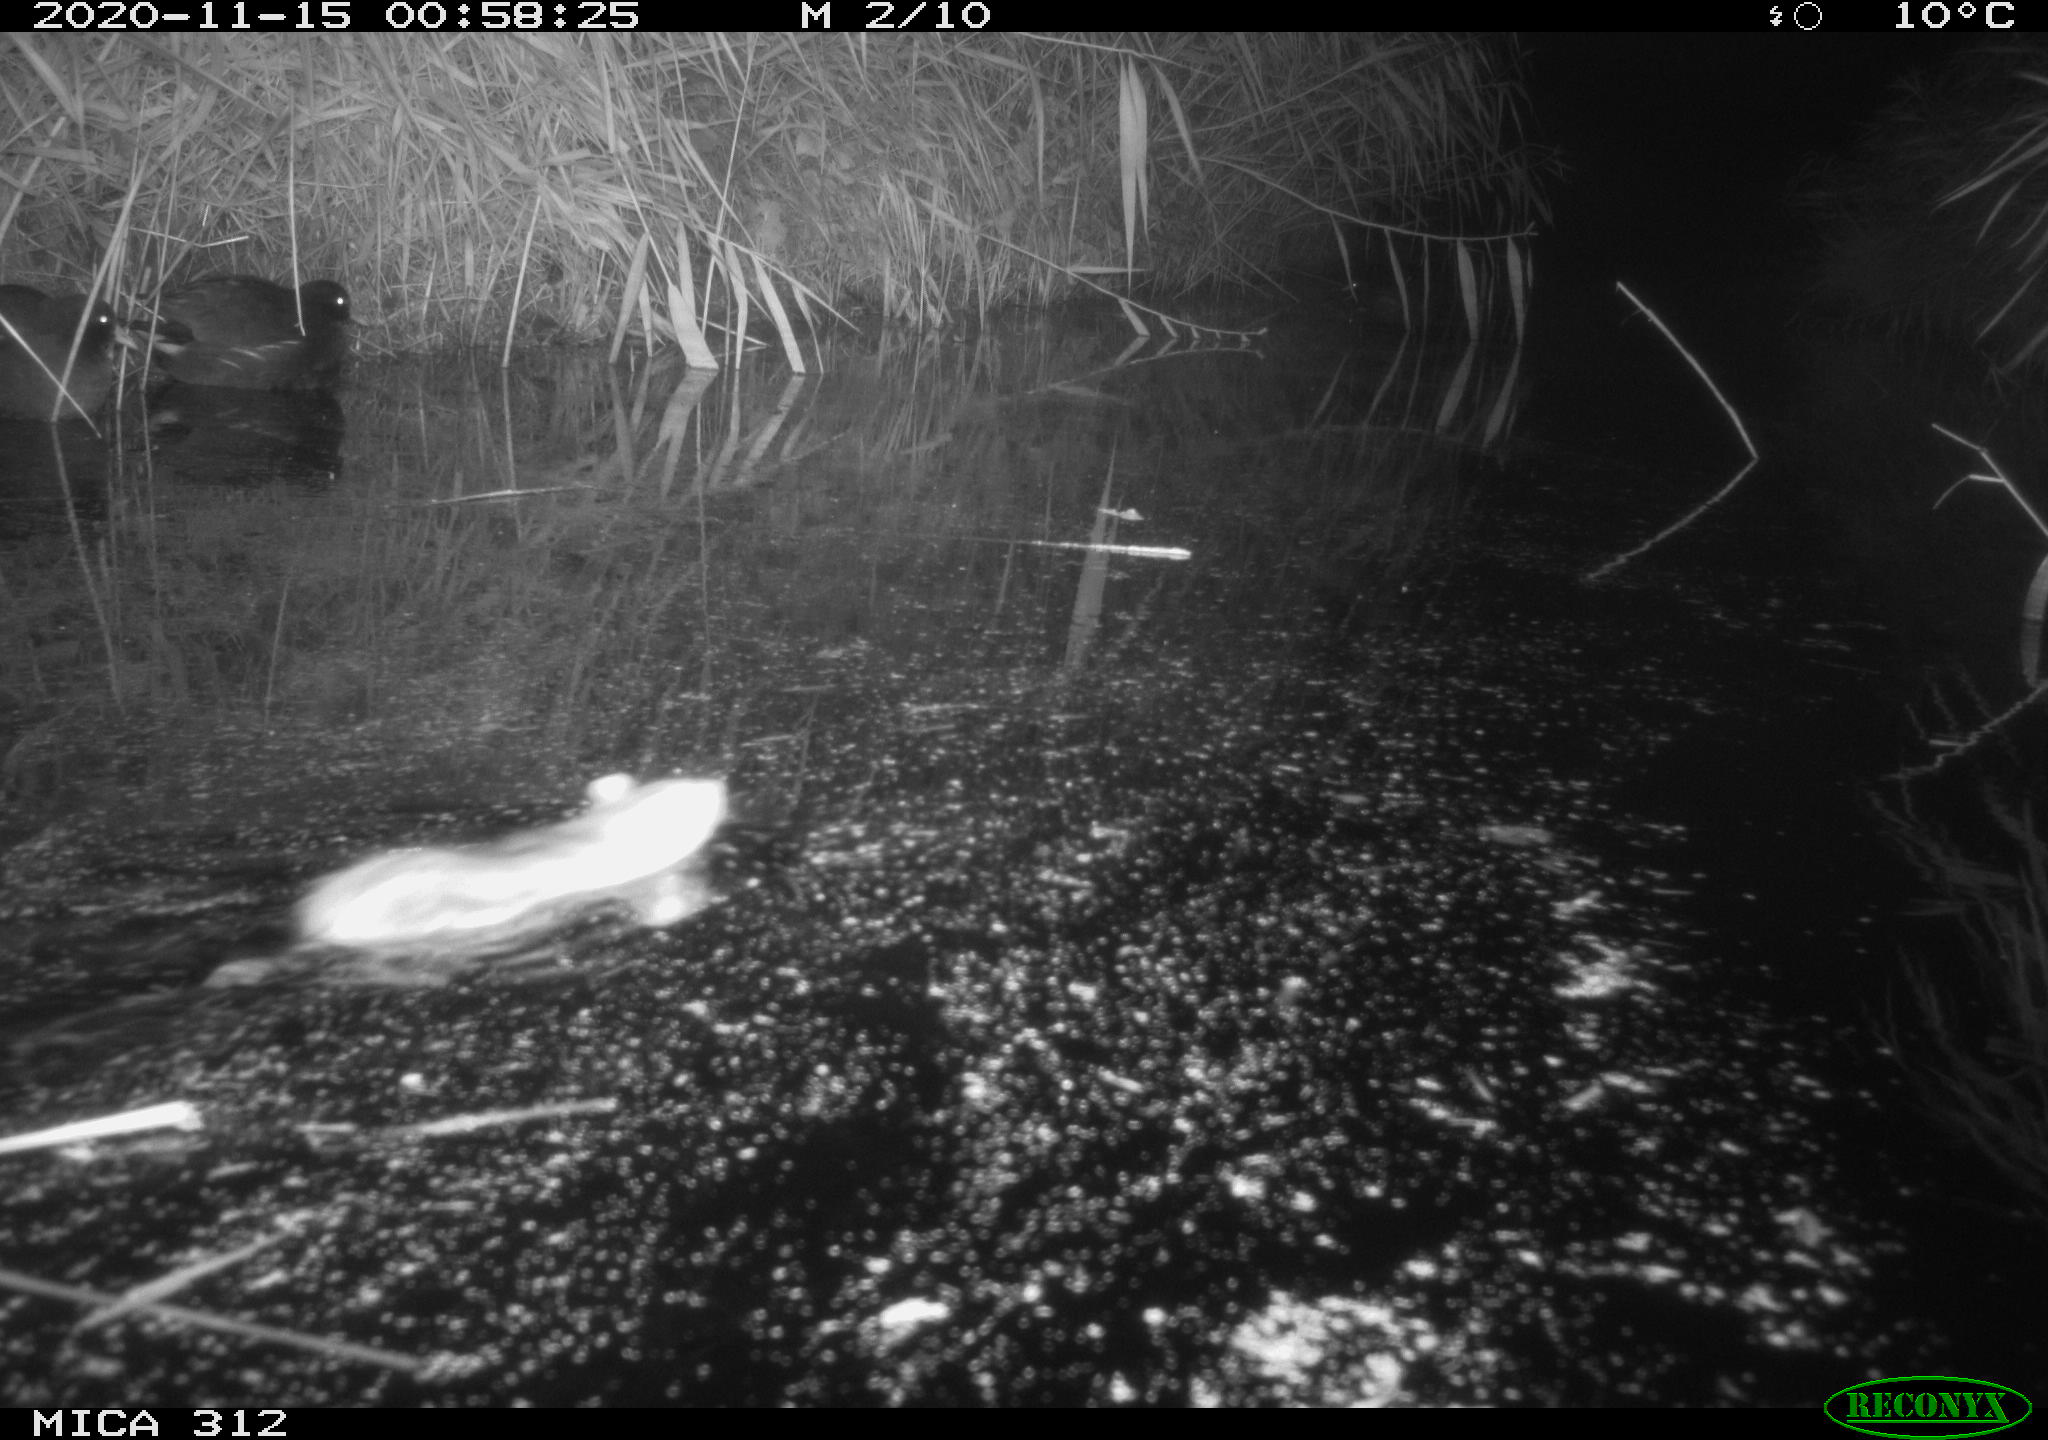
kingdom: Animalia
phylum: Chordata
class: Mammalia
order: Rodentia
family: Muridae
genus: Rattus
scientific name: Rattus norvegicus
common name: Brown rat
